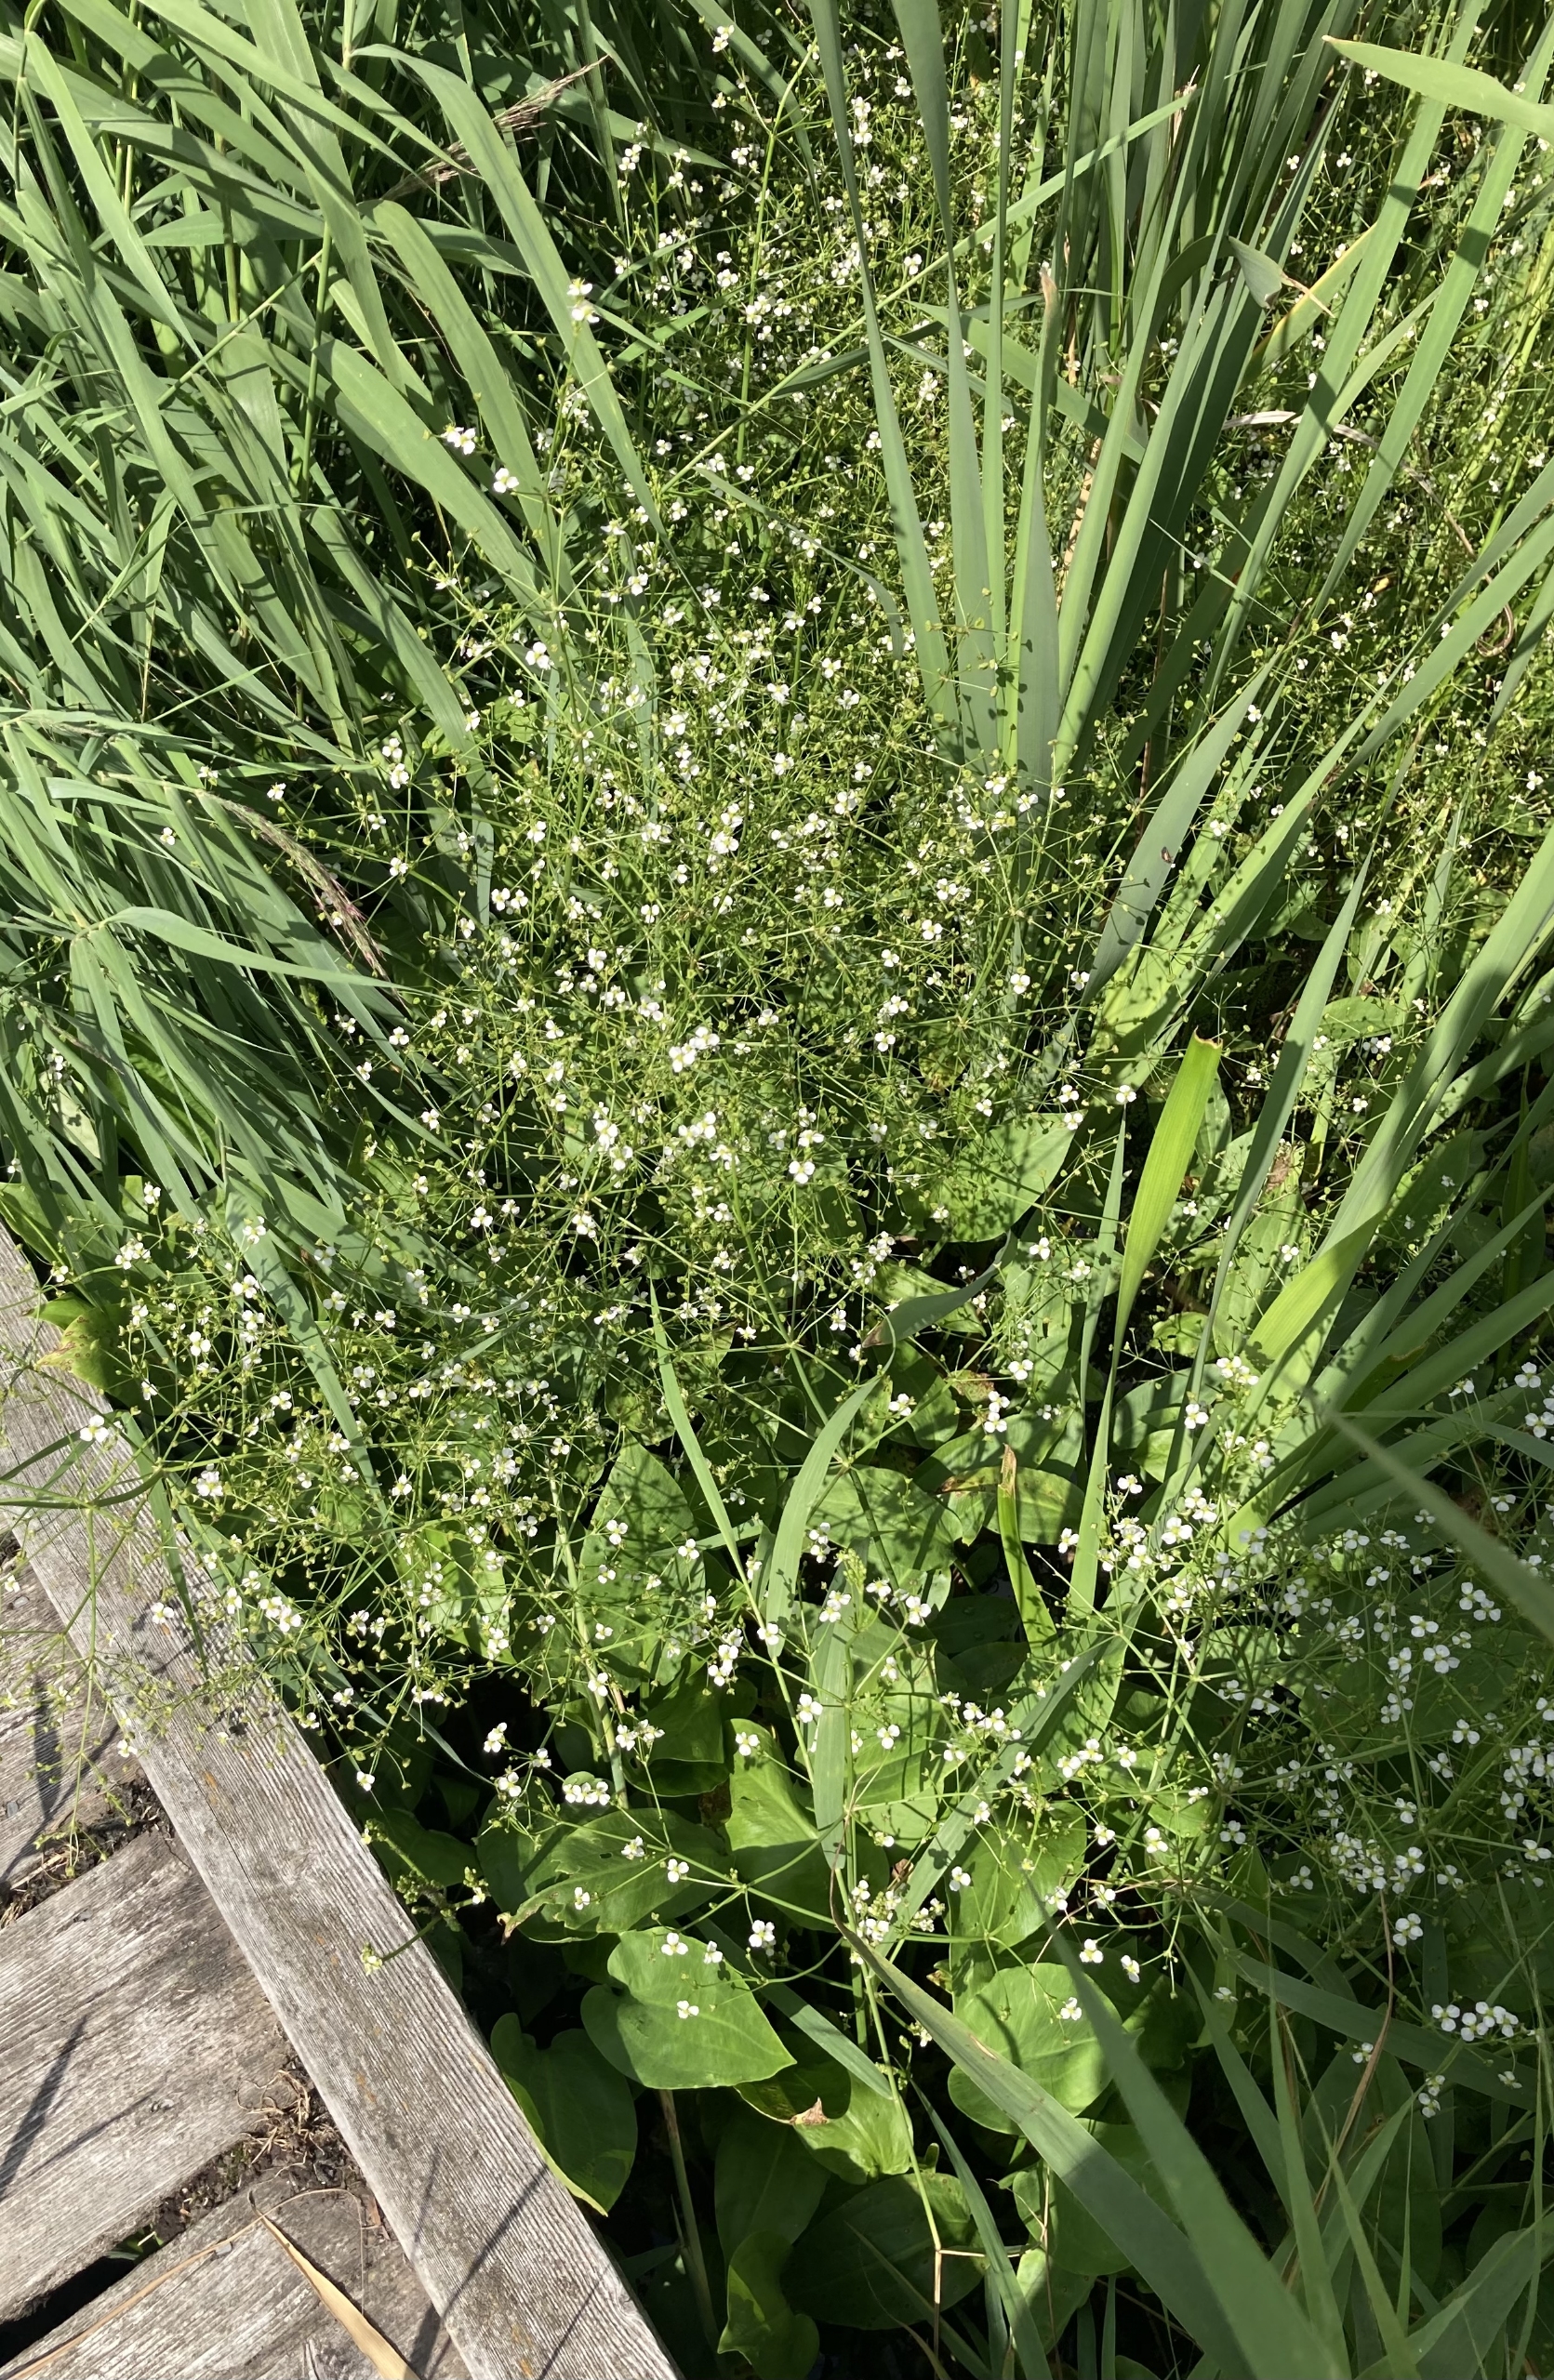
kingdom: Plantae
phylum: Tracheophyta
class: Liliopsida
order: Alismatales
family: Alismataceae
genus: Alisma
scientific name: Alisma plantago-aquatica
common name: Vejbred-skeblad
